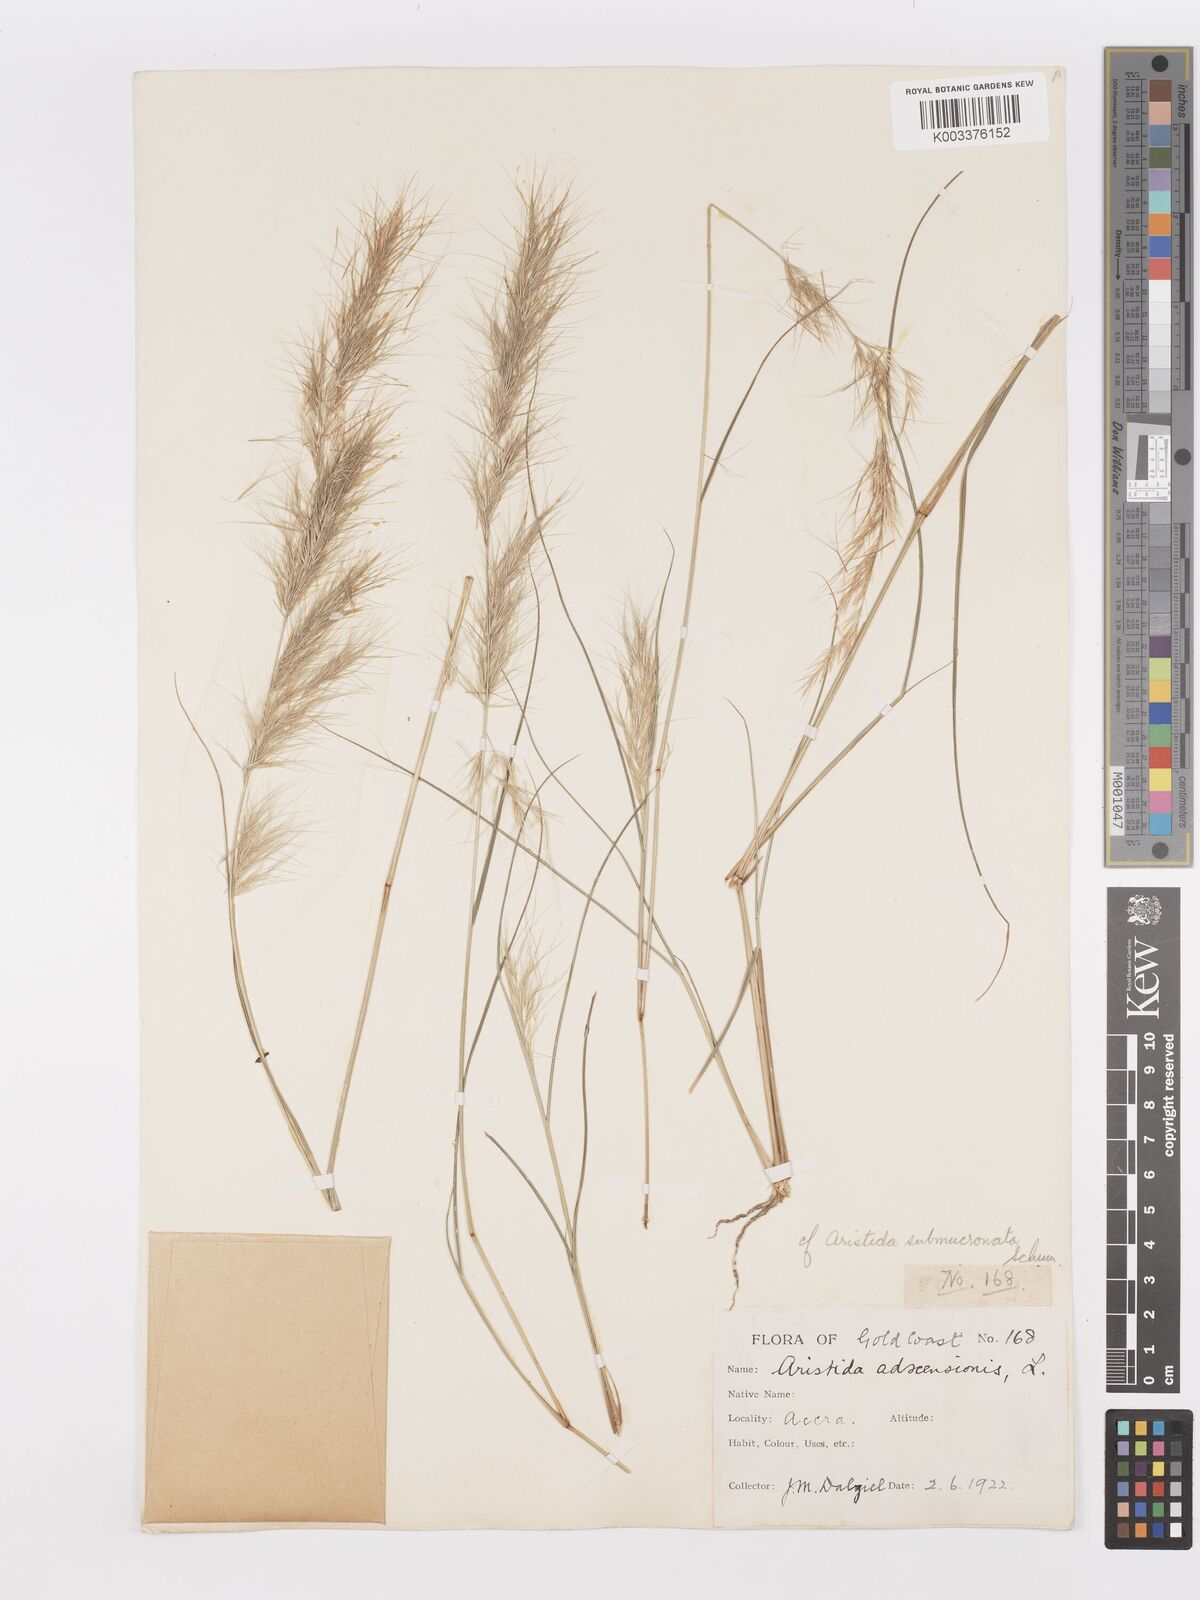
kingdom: Plantae
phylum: Tracheophyta
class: Liliopsida
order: Poales
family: Poaceae
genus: Aristida
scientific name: Aristida adscensionis
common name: Sixweeks threeawn
